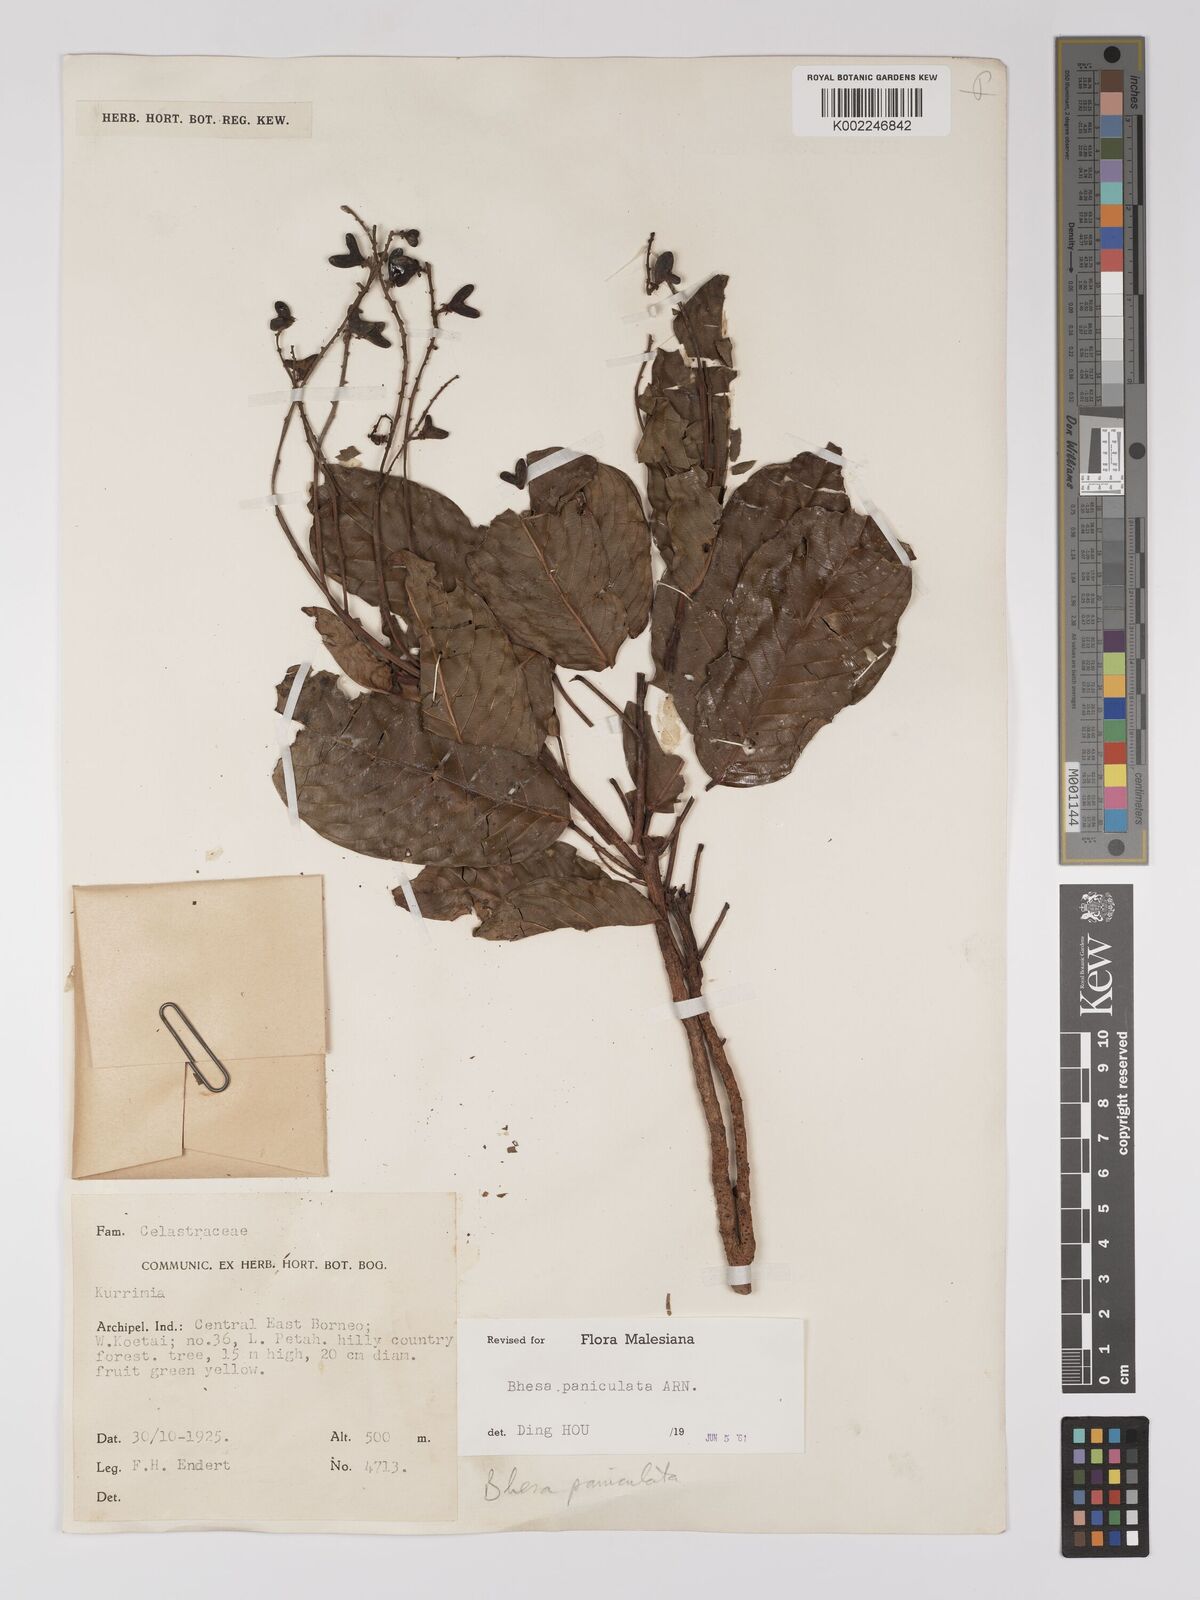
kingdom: Plantae
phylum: Tracheophyta
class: Magnoliopsida
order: Malpighiales
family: Centroplacaceae
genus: Bhesa
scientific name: Bhesa paniculata
